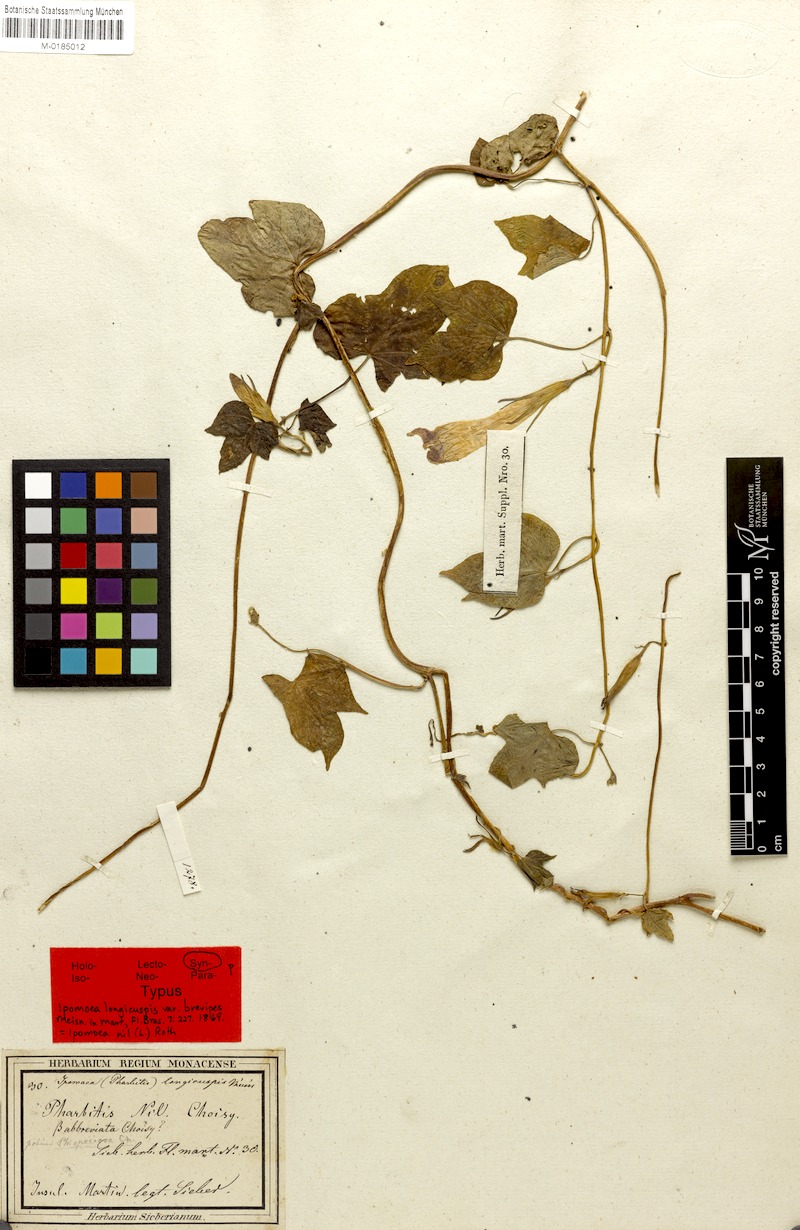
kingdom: Plantae
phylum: Tracheophyta
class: Magnoliopsida
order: Solanales
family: Convolvulaceae
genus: Ipomoea
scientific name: Ipomoea nil
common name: Japanese morning-glory
